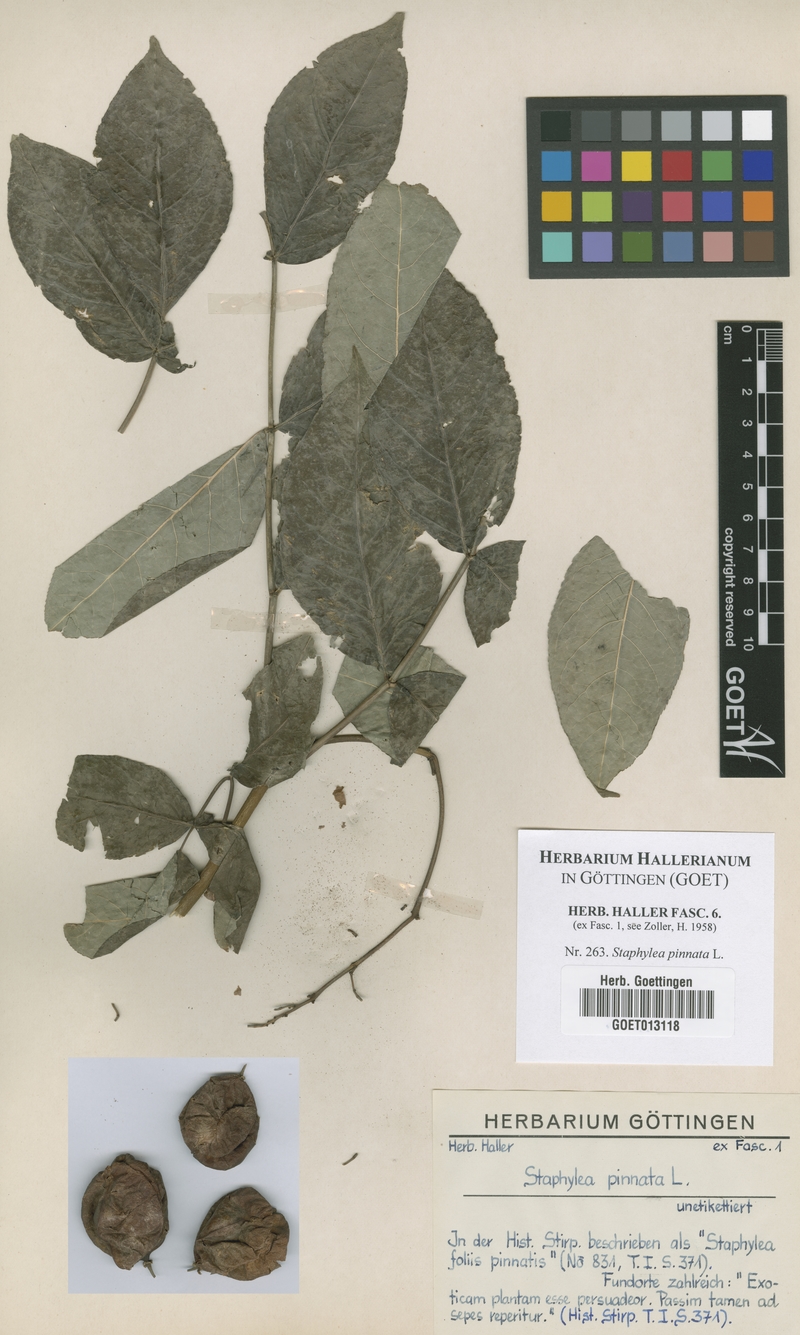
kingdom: Plantae
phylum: Tracheophyta
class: Magnoliopsida
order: Crossosomatales
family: Staphyleaceae
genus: Staphylea
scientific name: Staphylea pinnata
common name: Bladdernut
